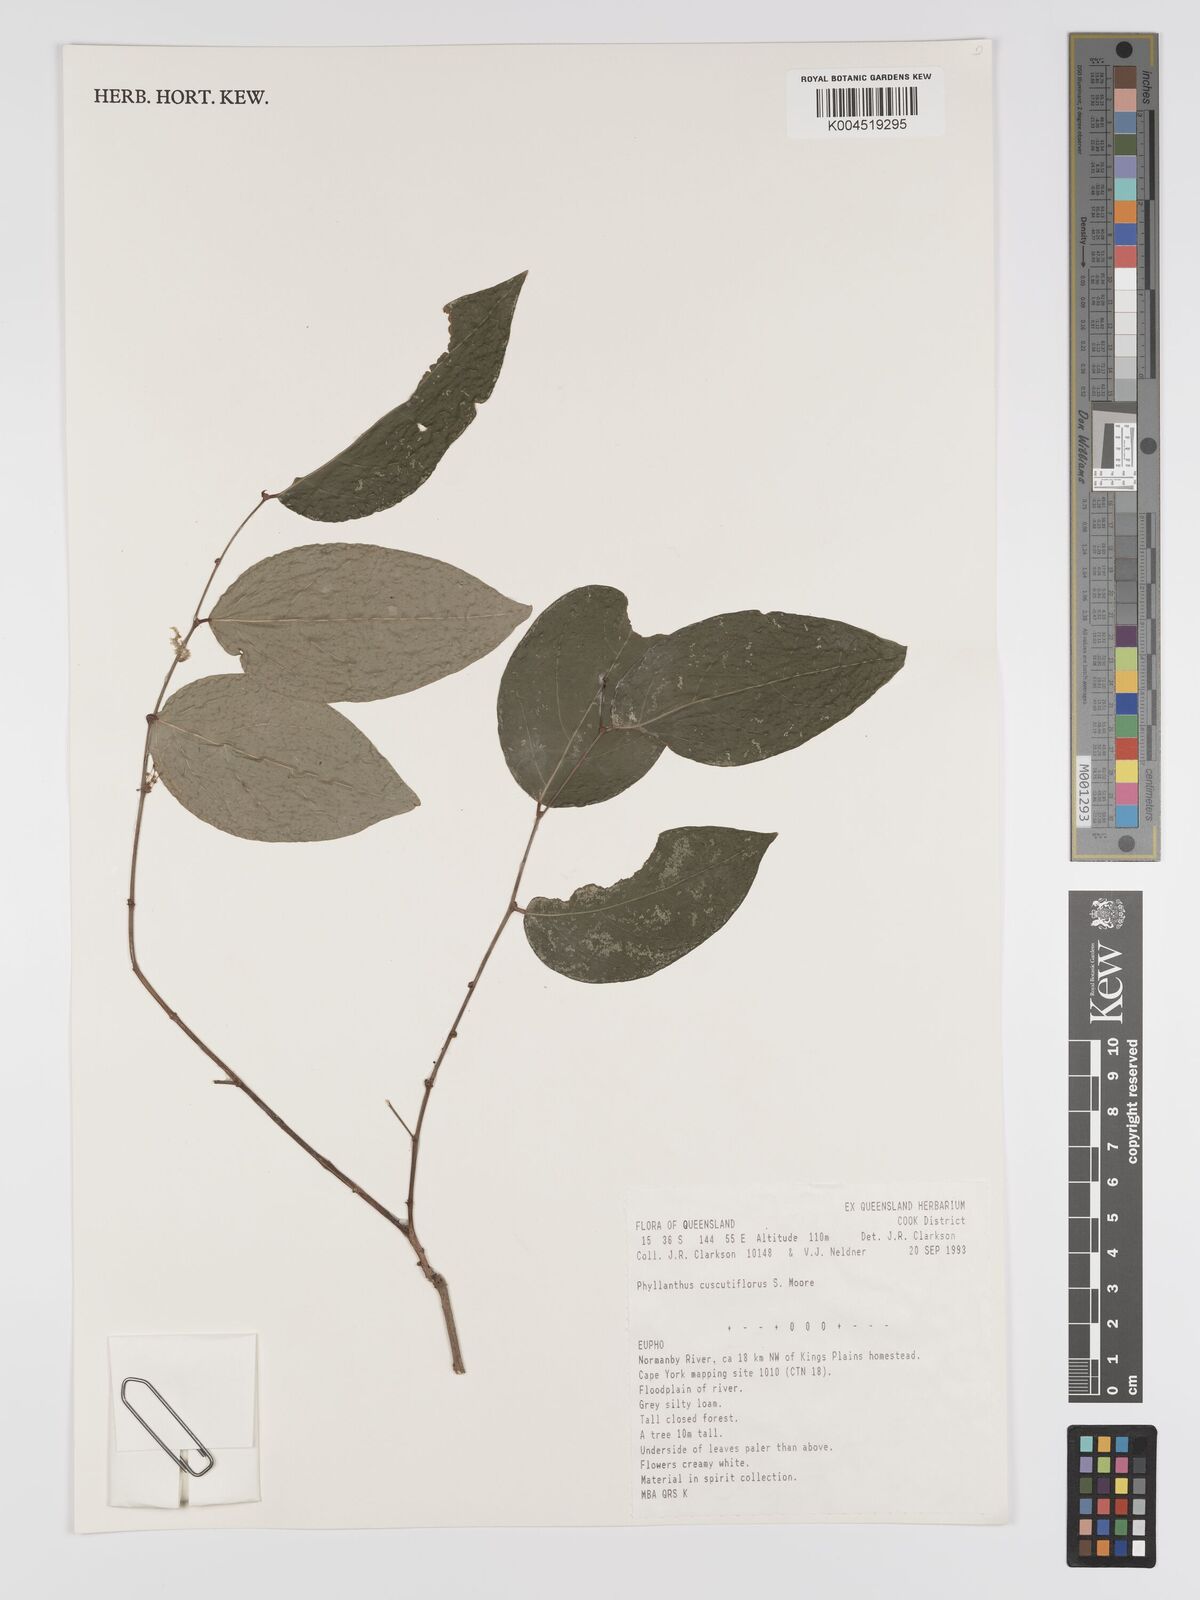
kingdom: Plantae
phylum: Tracheophyta
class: Magnoliopsida
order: Malpighiales
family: Phyllanthaceae
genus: Phyllanthus
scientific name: Phyllanthus cuscutiflorus
